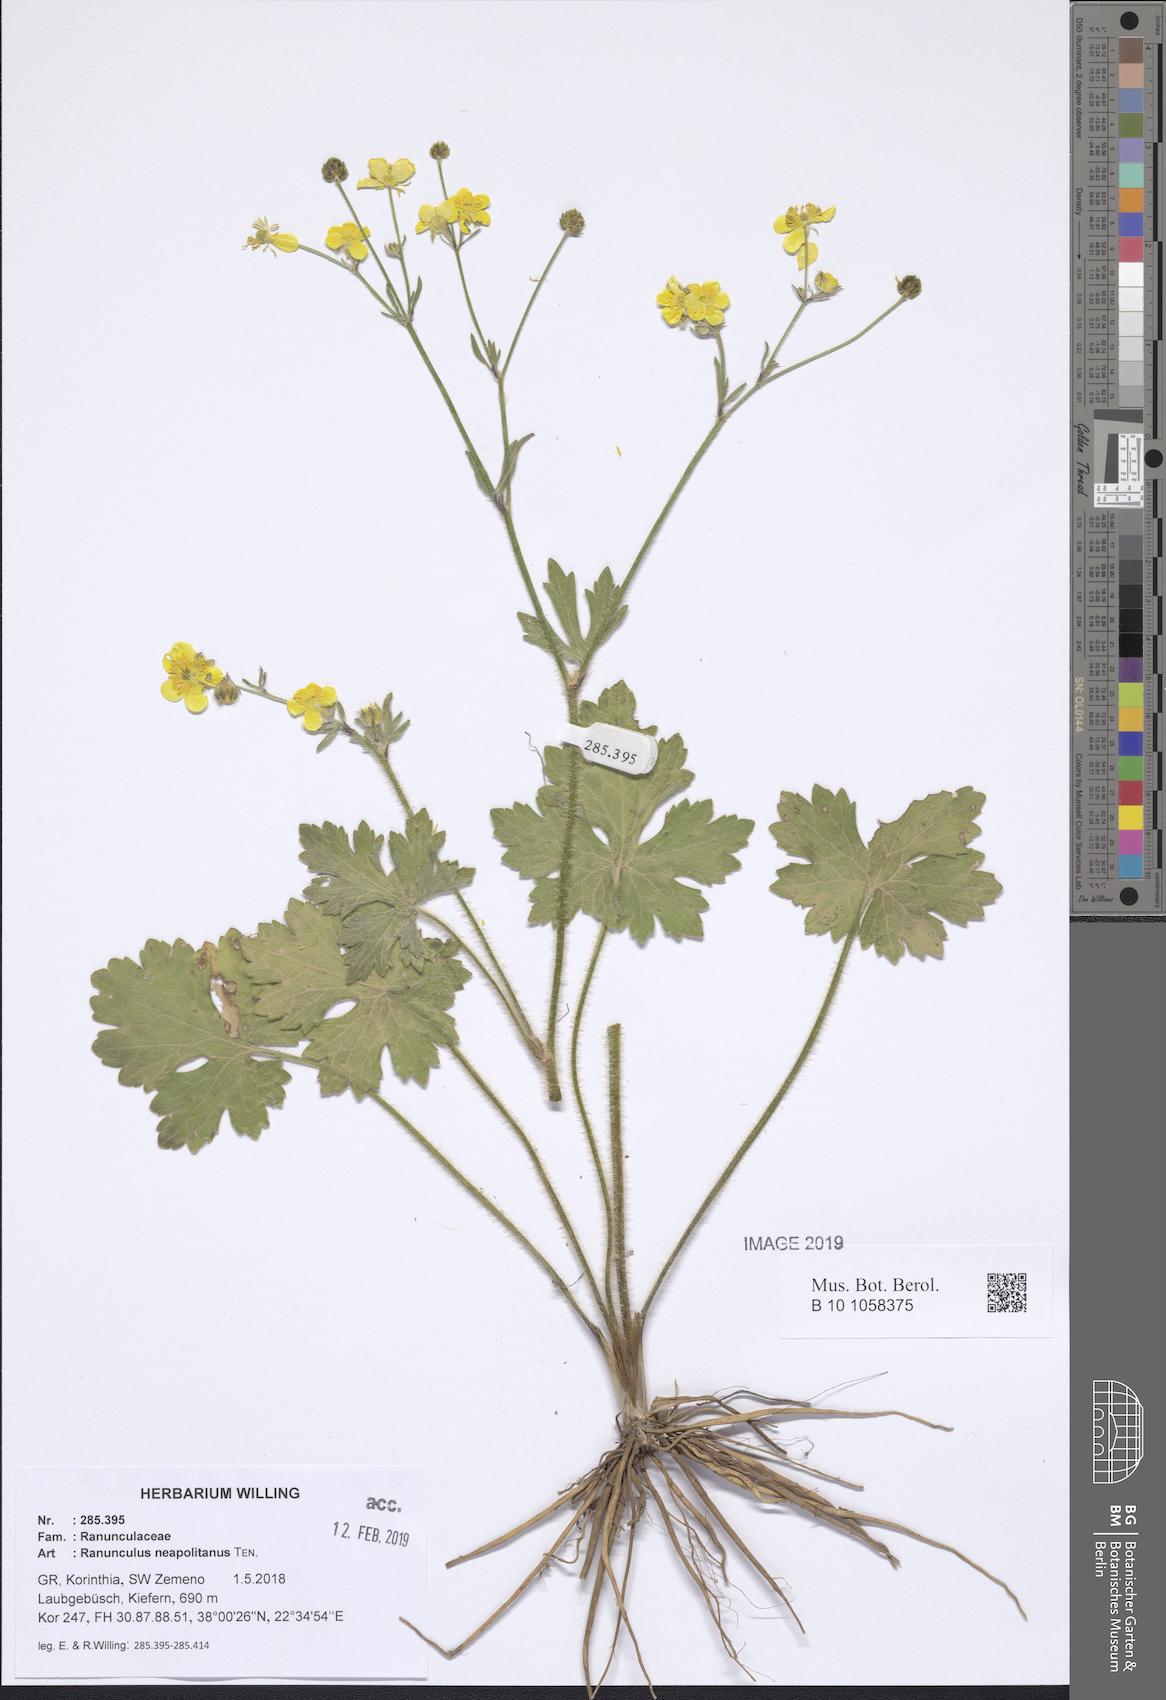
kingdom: Plantae
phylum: Tracheophyta
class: Magnoliopsida
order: Ranunculales
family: Ranunculaceae
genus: Ranunculus
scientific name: Ranunculus neapolitanus
